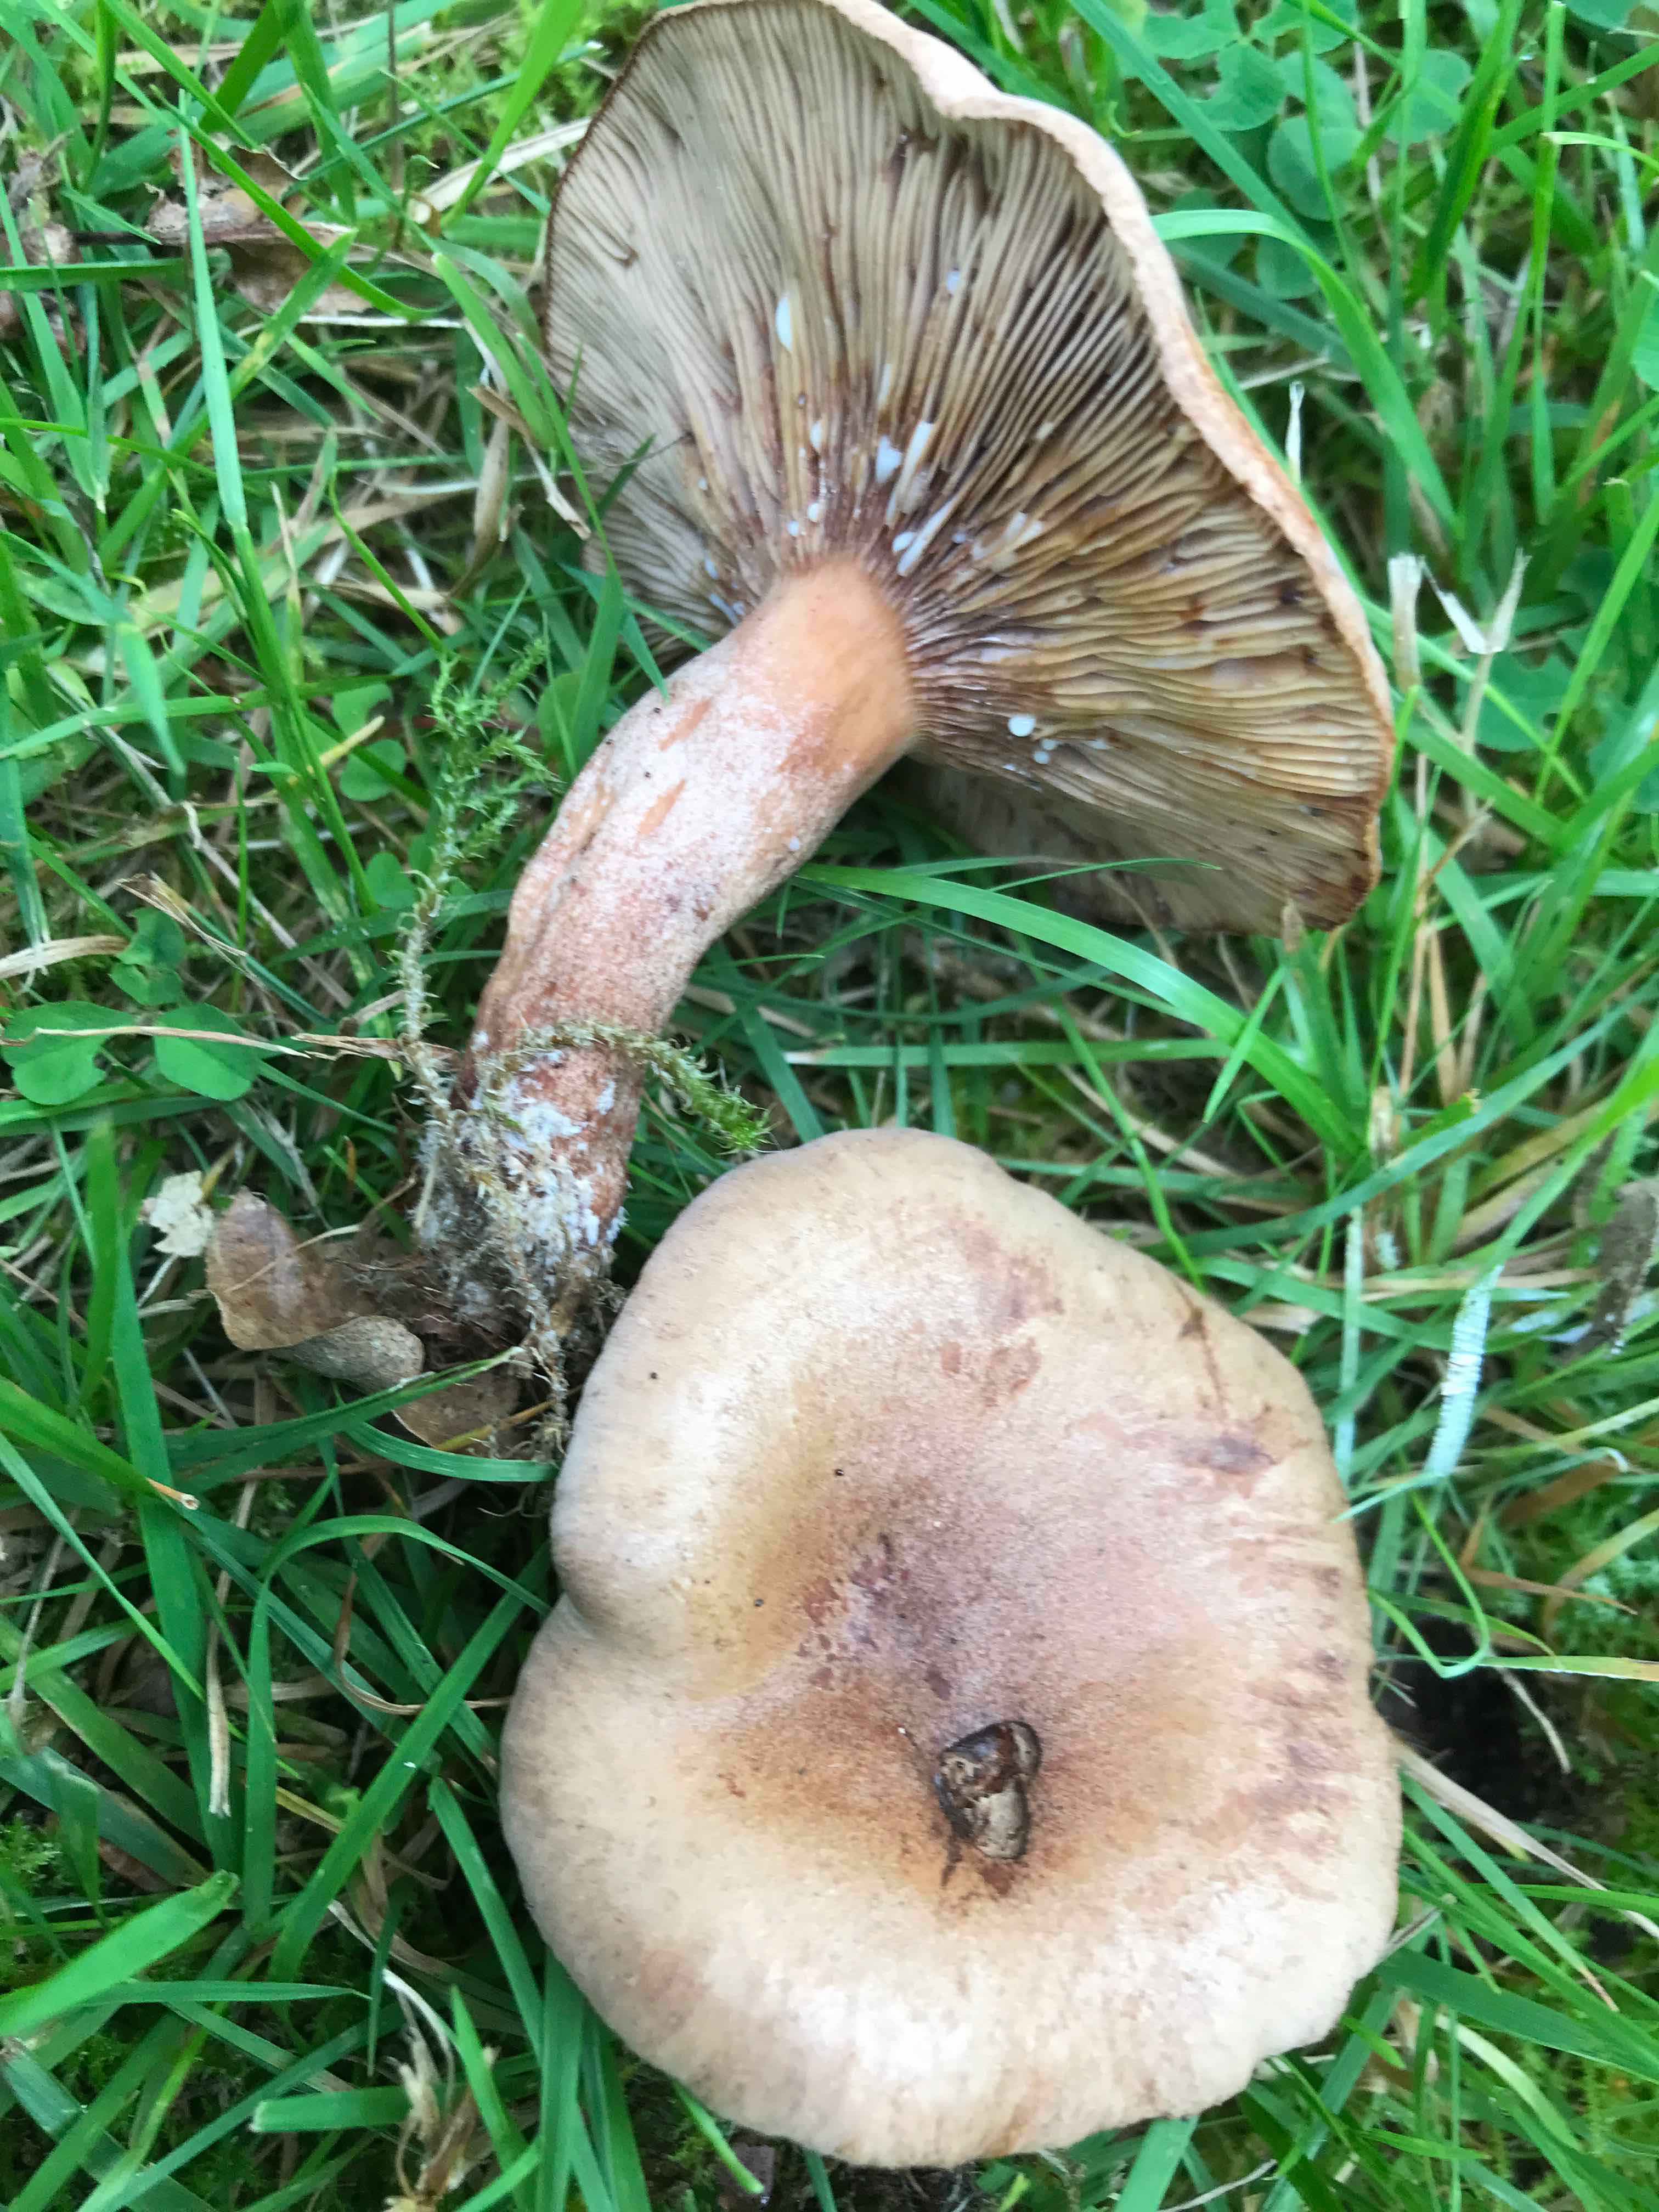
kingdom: Fungi
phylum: Basidiomycota
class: Agaricomycetes
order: Russulales
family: Russulaceae
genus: Lactarius
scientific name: Lactarius quietus
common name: ege-mælkehat
